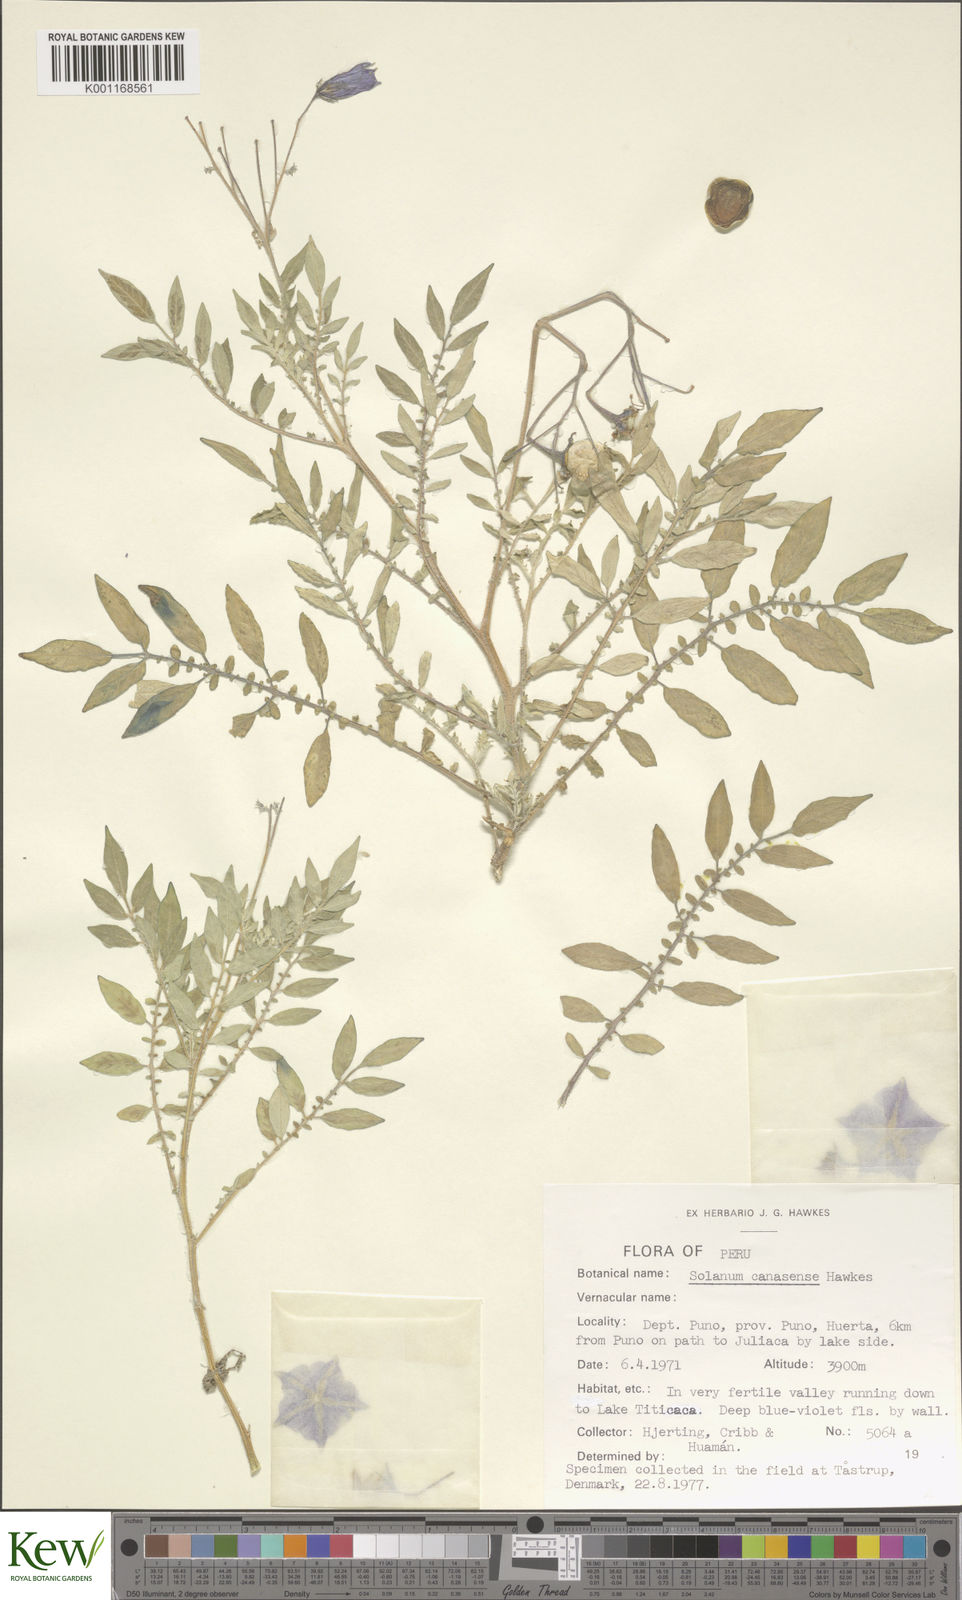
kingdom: Plantae
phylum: Tracheophyta
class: Magnoliopsida
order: Solanales
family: Solanaceae
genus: Solanum
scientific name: Solanum candolleanum
